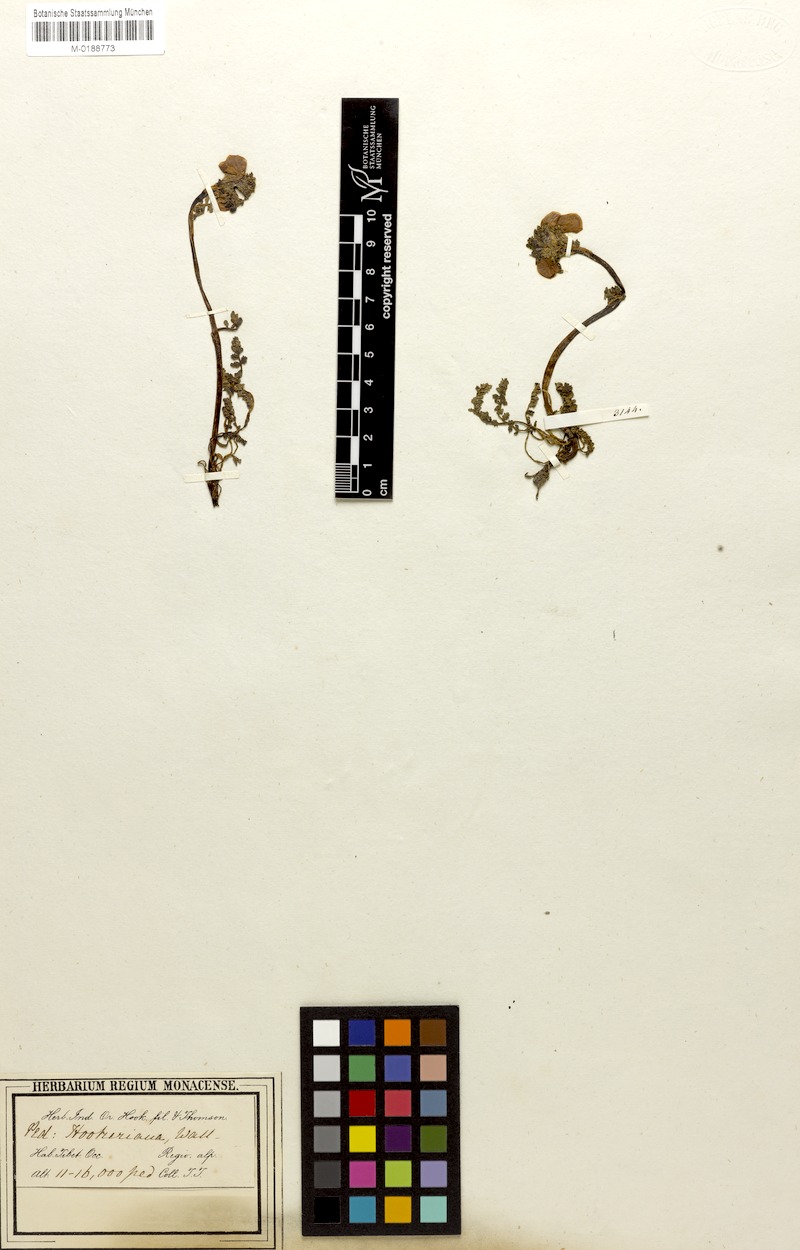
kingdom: Plantae
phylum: Tracheophyta
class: Magnoliopsida
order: Lamiales
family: Orobanchaceae
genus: Pedicularis
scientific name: Pedicularis rhinanthoides
